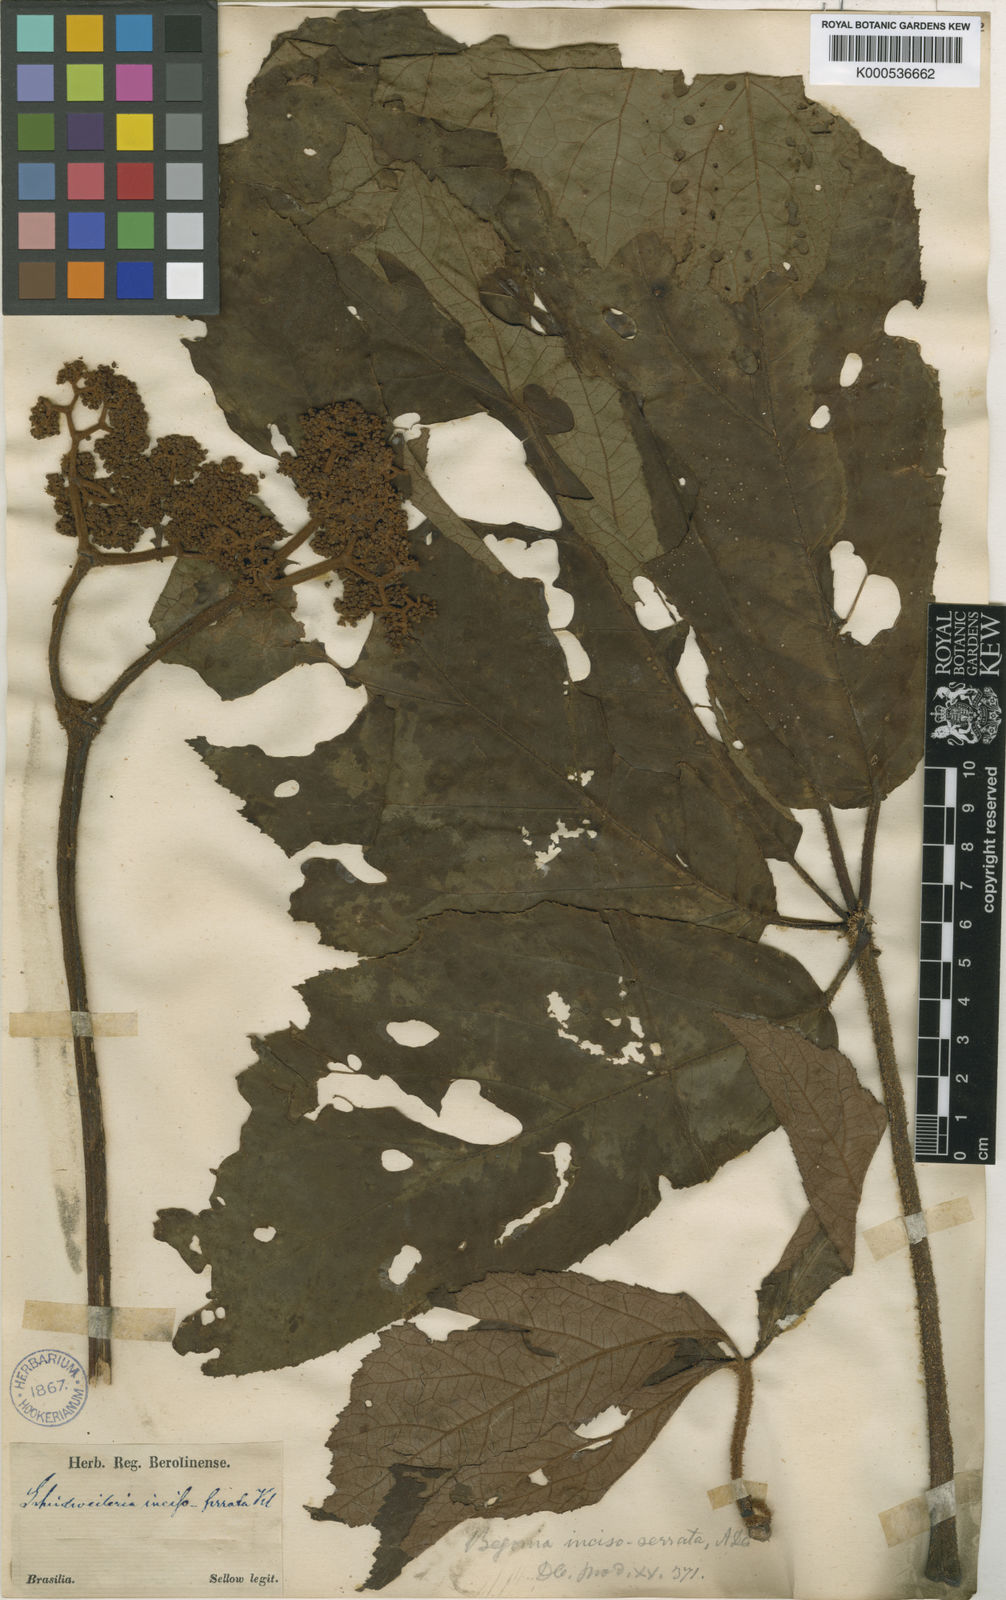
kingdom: Plantae
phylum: Tracheophyta
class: Magnoliopsida
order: Cucurbitales
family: Begoniaceae
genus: Begonia
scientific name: Begonia incisoserrata
